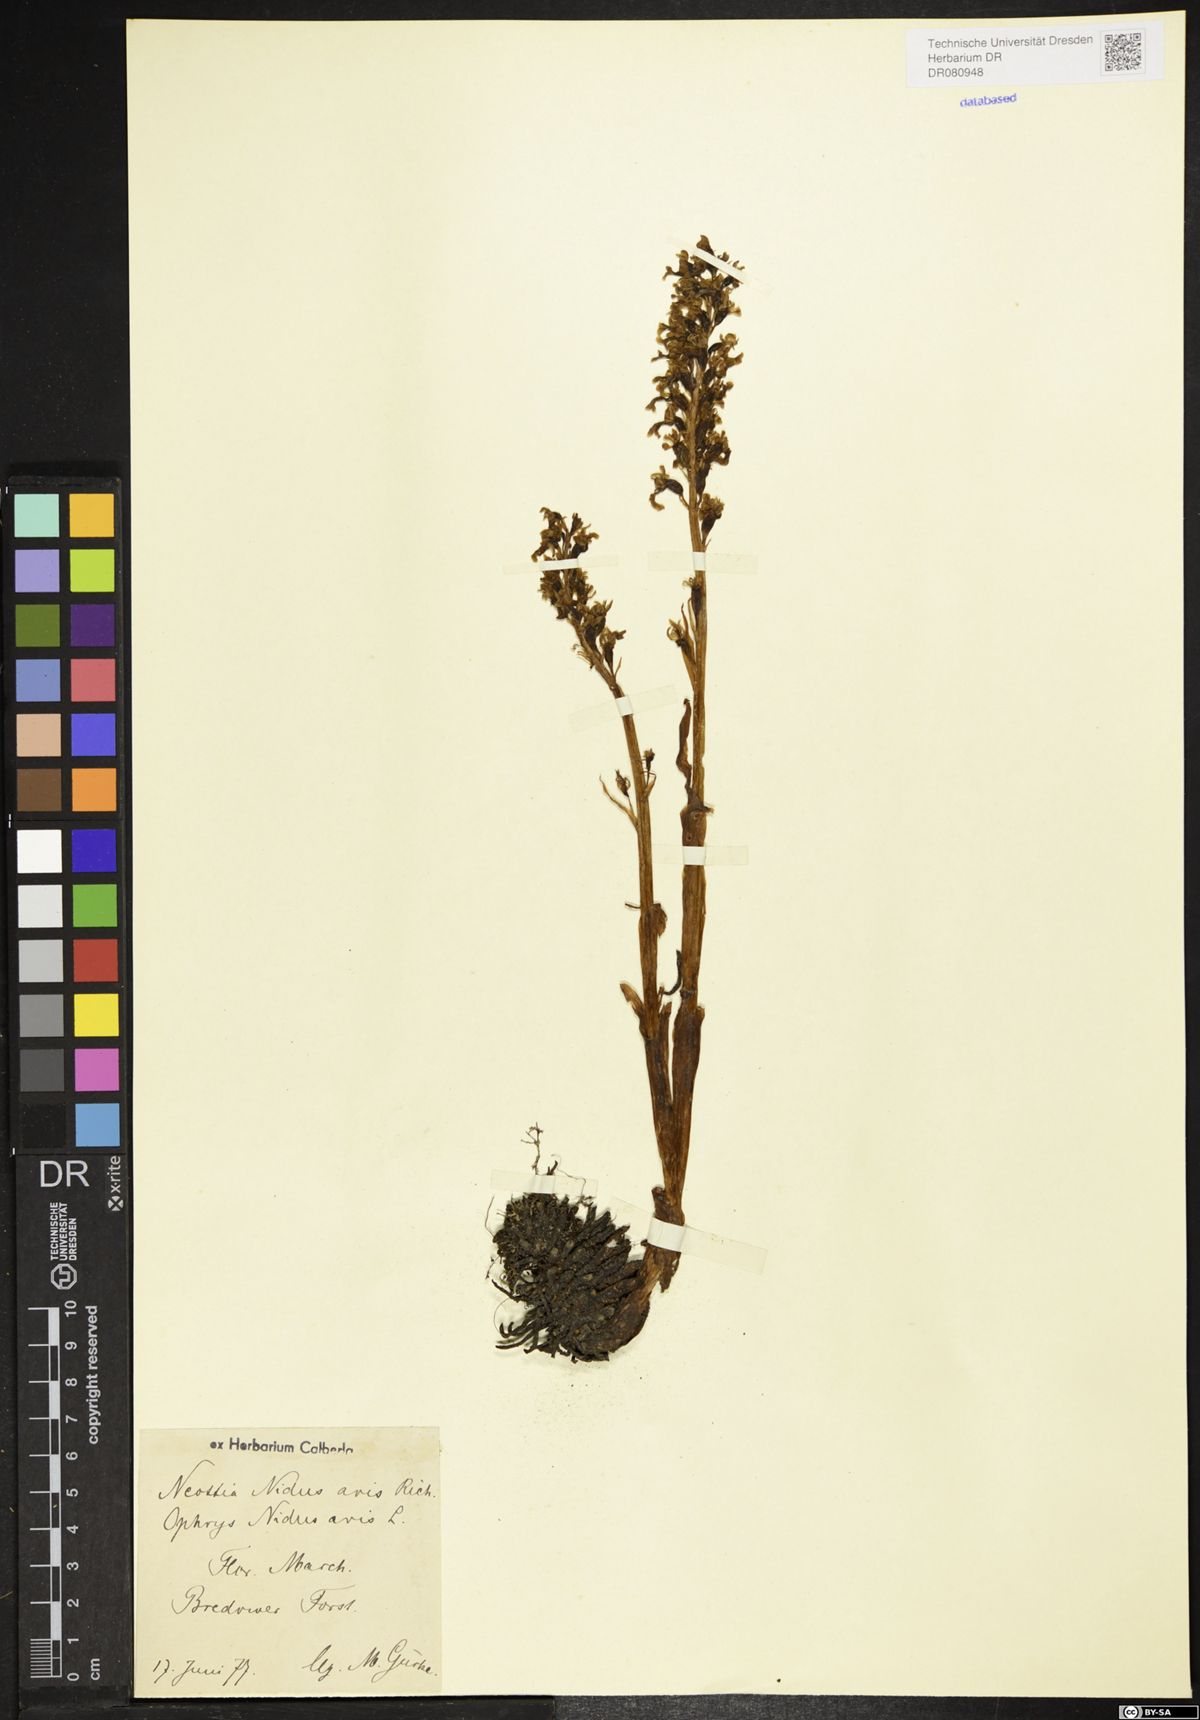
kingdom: Plantae
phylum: Tracheophyta
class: Liliopsida
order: Asparagales
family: Orchidaceae
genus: Neottia
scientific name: Neottia nidus-avis
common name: Bird's-nest orchid
